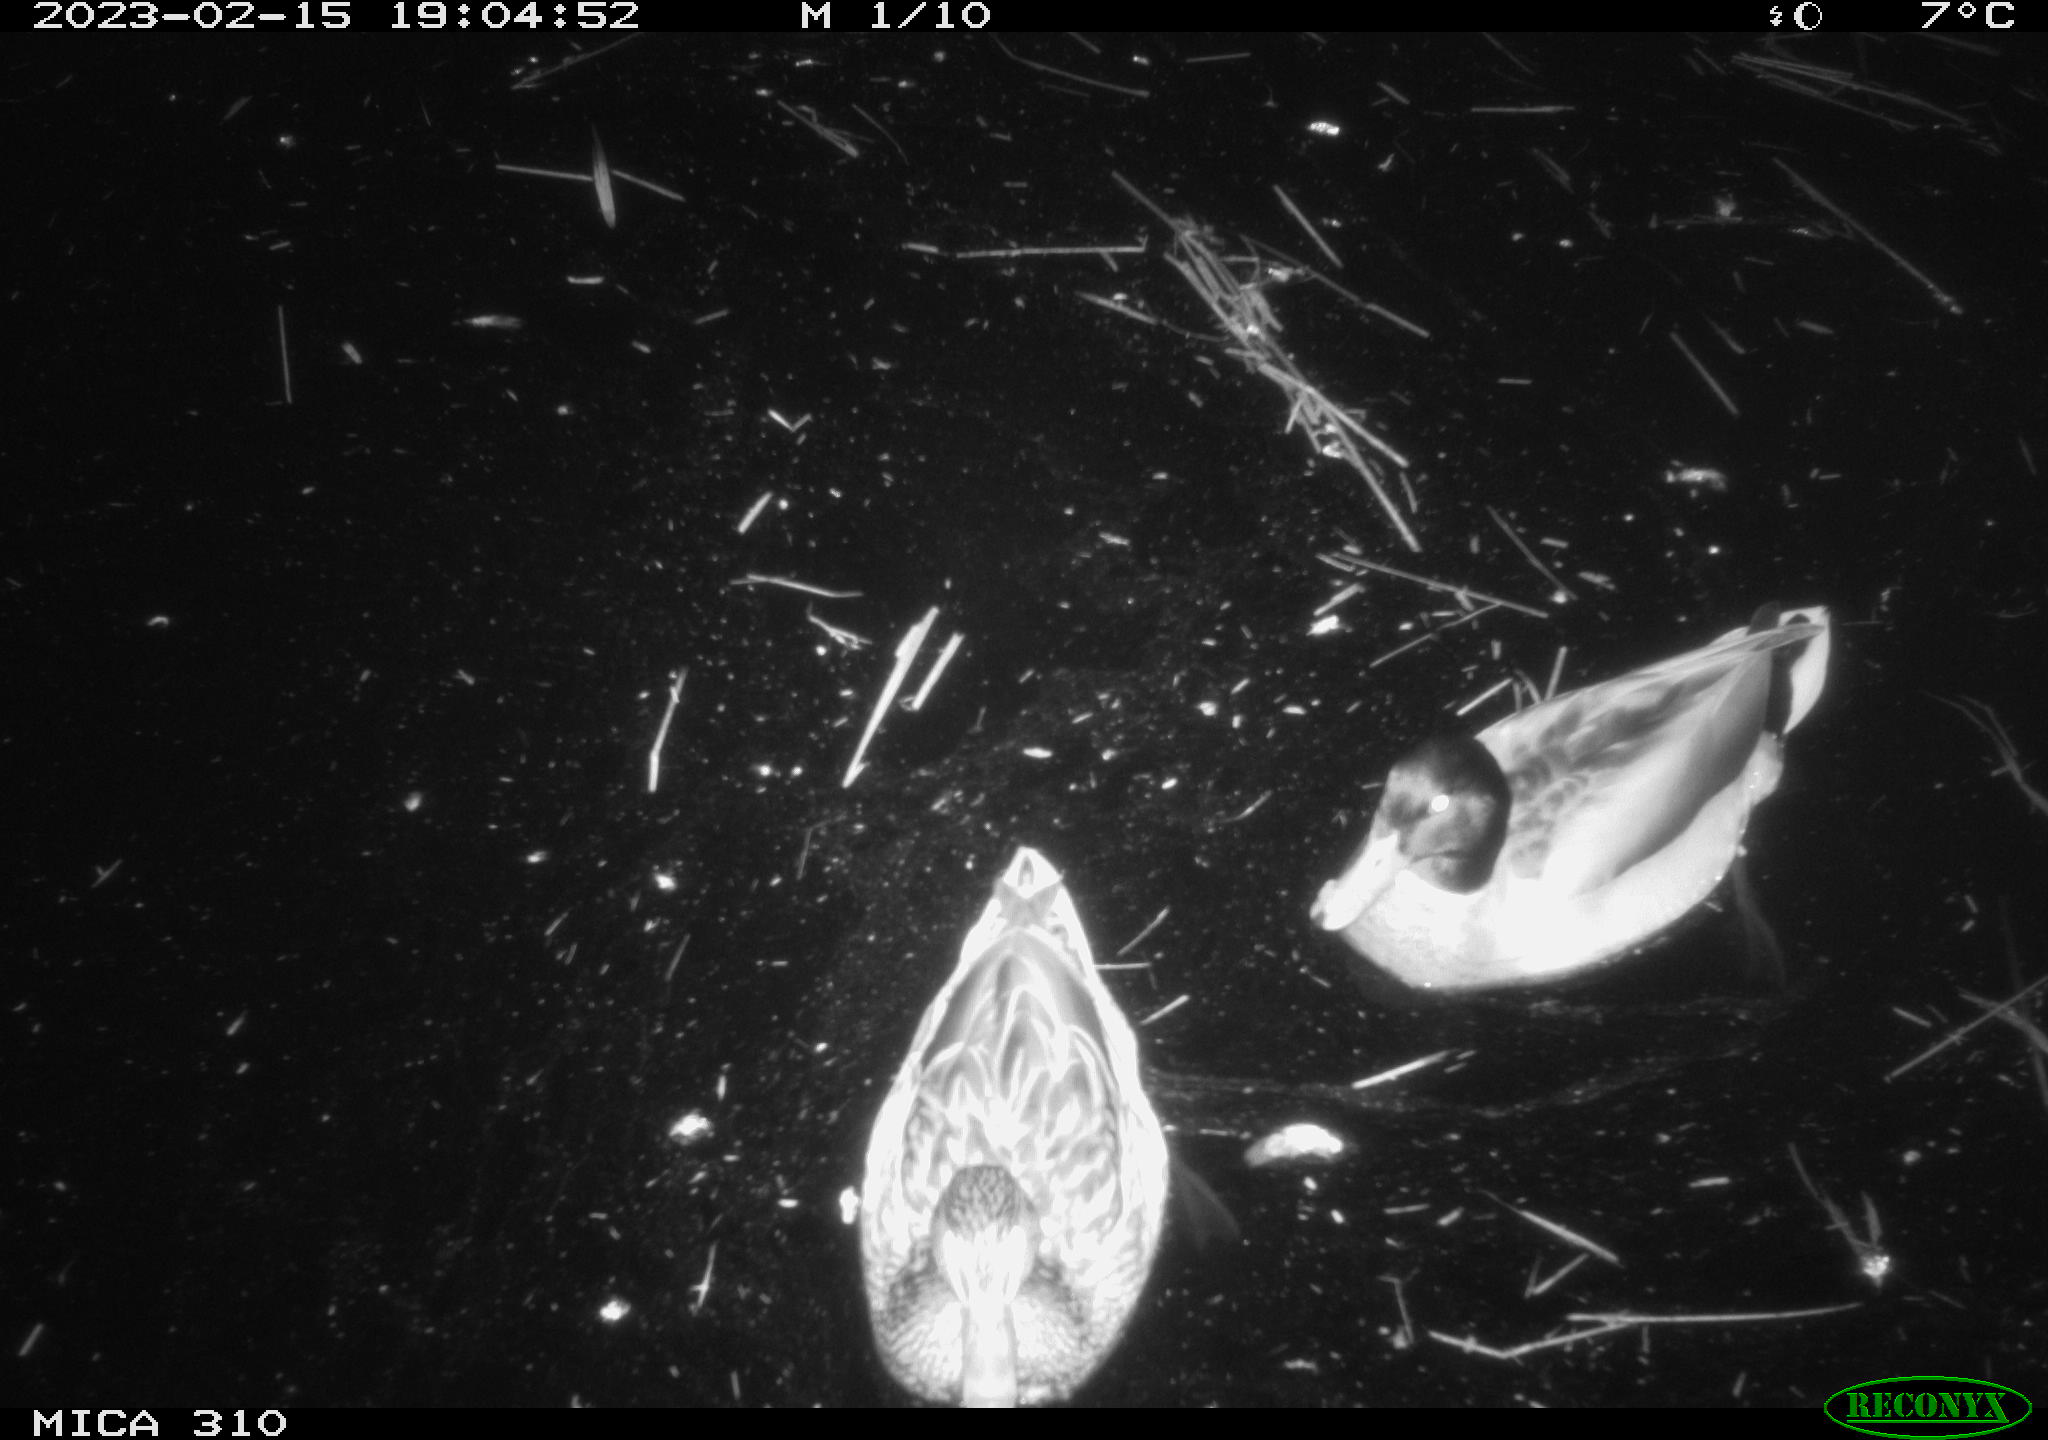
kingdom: Animalia
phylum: Chordata
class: Aves
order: Anseriformes
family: Anatidae
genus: Anas
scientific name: Anas
